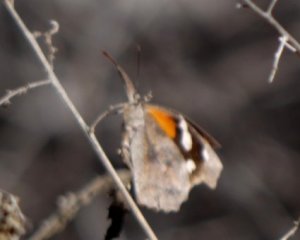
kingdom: Animalia
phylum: Arthropoda
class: Insecta
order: Lepidoptera
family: Nymphalidae
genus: Libytheana
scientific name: Libytheana carinenta
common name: American Snout
